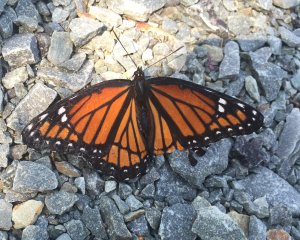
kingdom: Animalia
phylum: Arthropoda
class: Insecta
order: Lepidoptera
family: Nymphalidae
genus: Limenitis
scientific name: Limenitis archippus
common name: Viceroy
